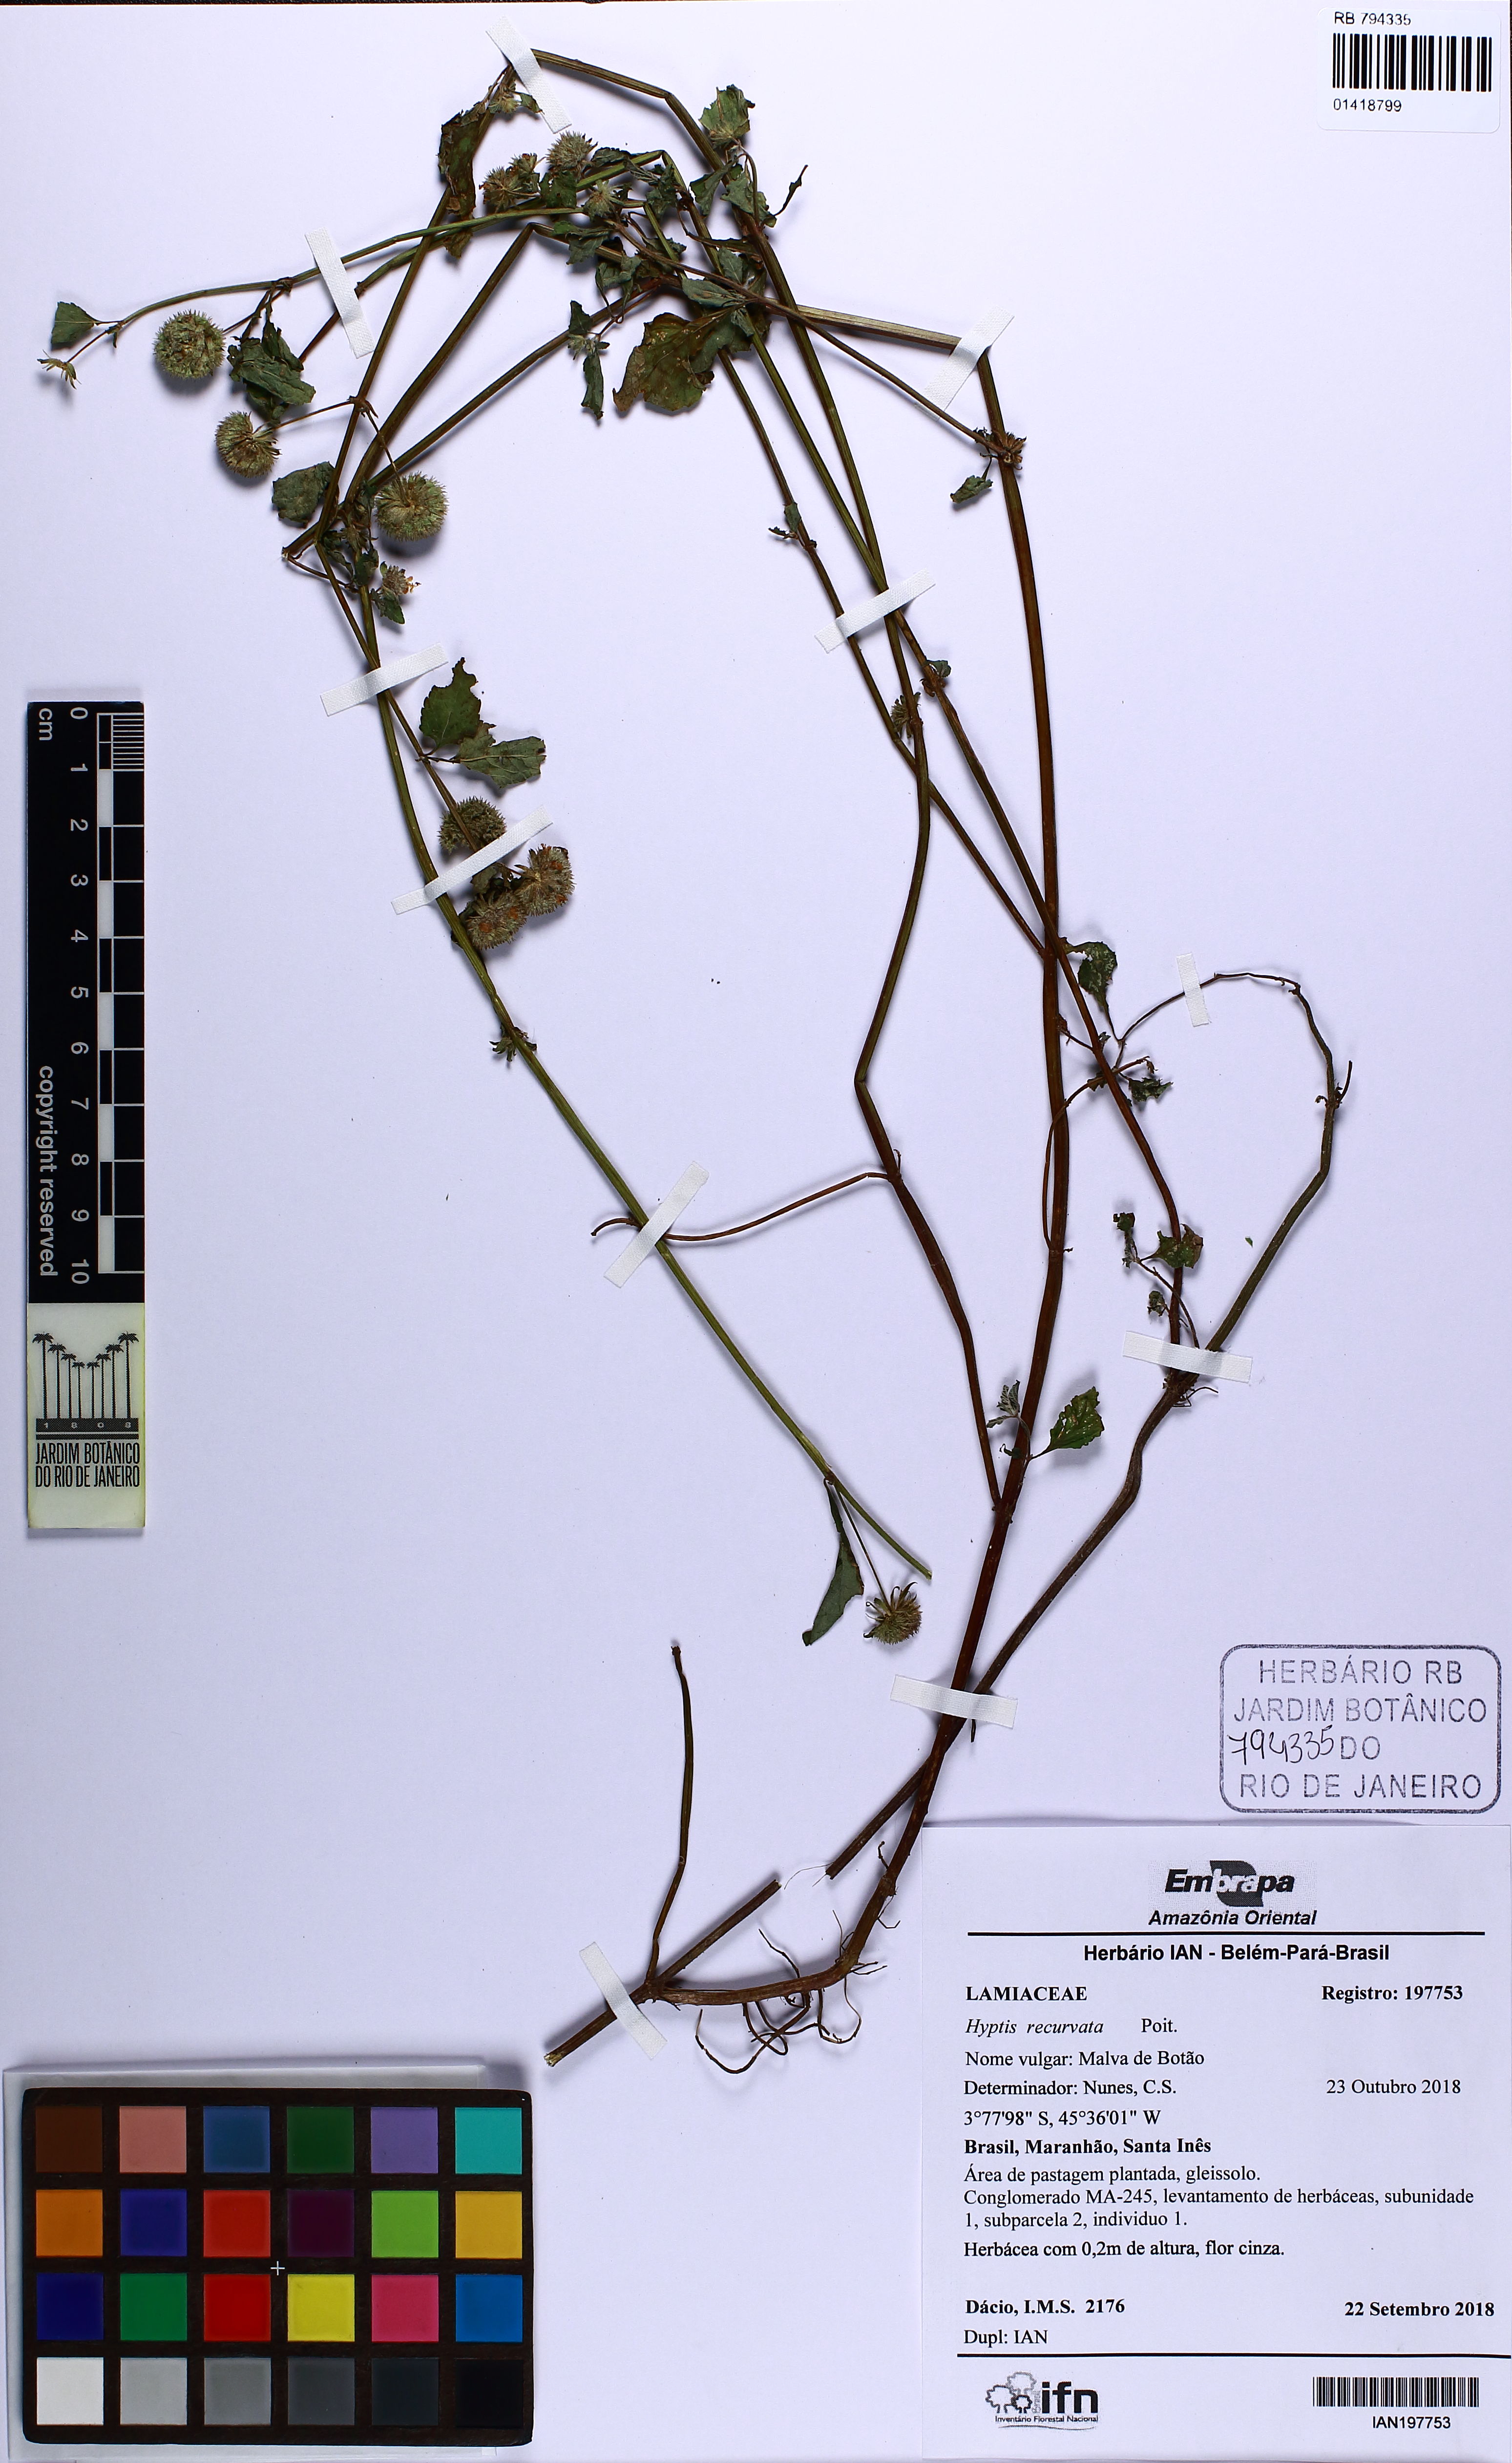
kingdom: Plantae
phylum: Tracheophyta
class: Magnoliopsida
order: Lamiales
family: Lamiaceae
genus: Hyptis
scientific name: Hyptis recurvata
